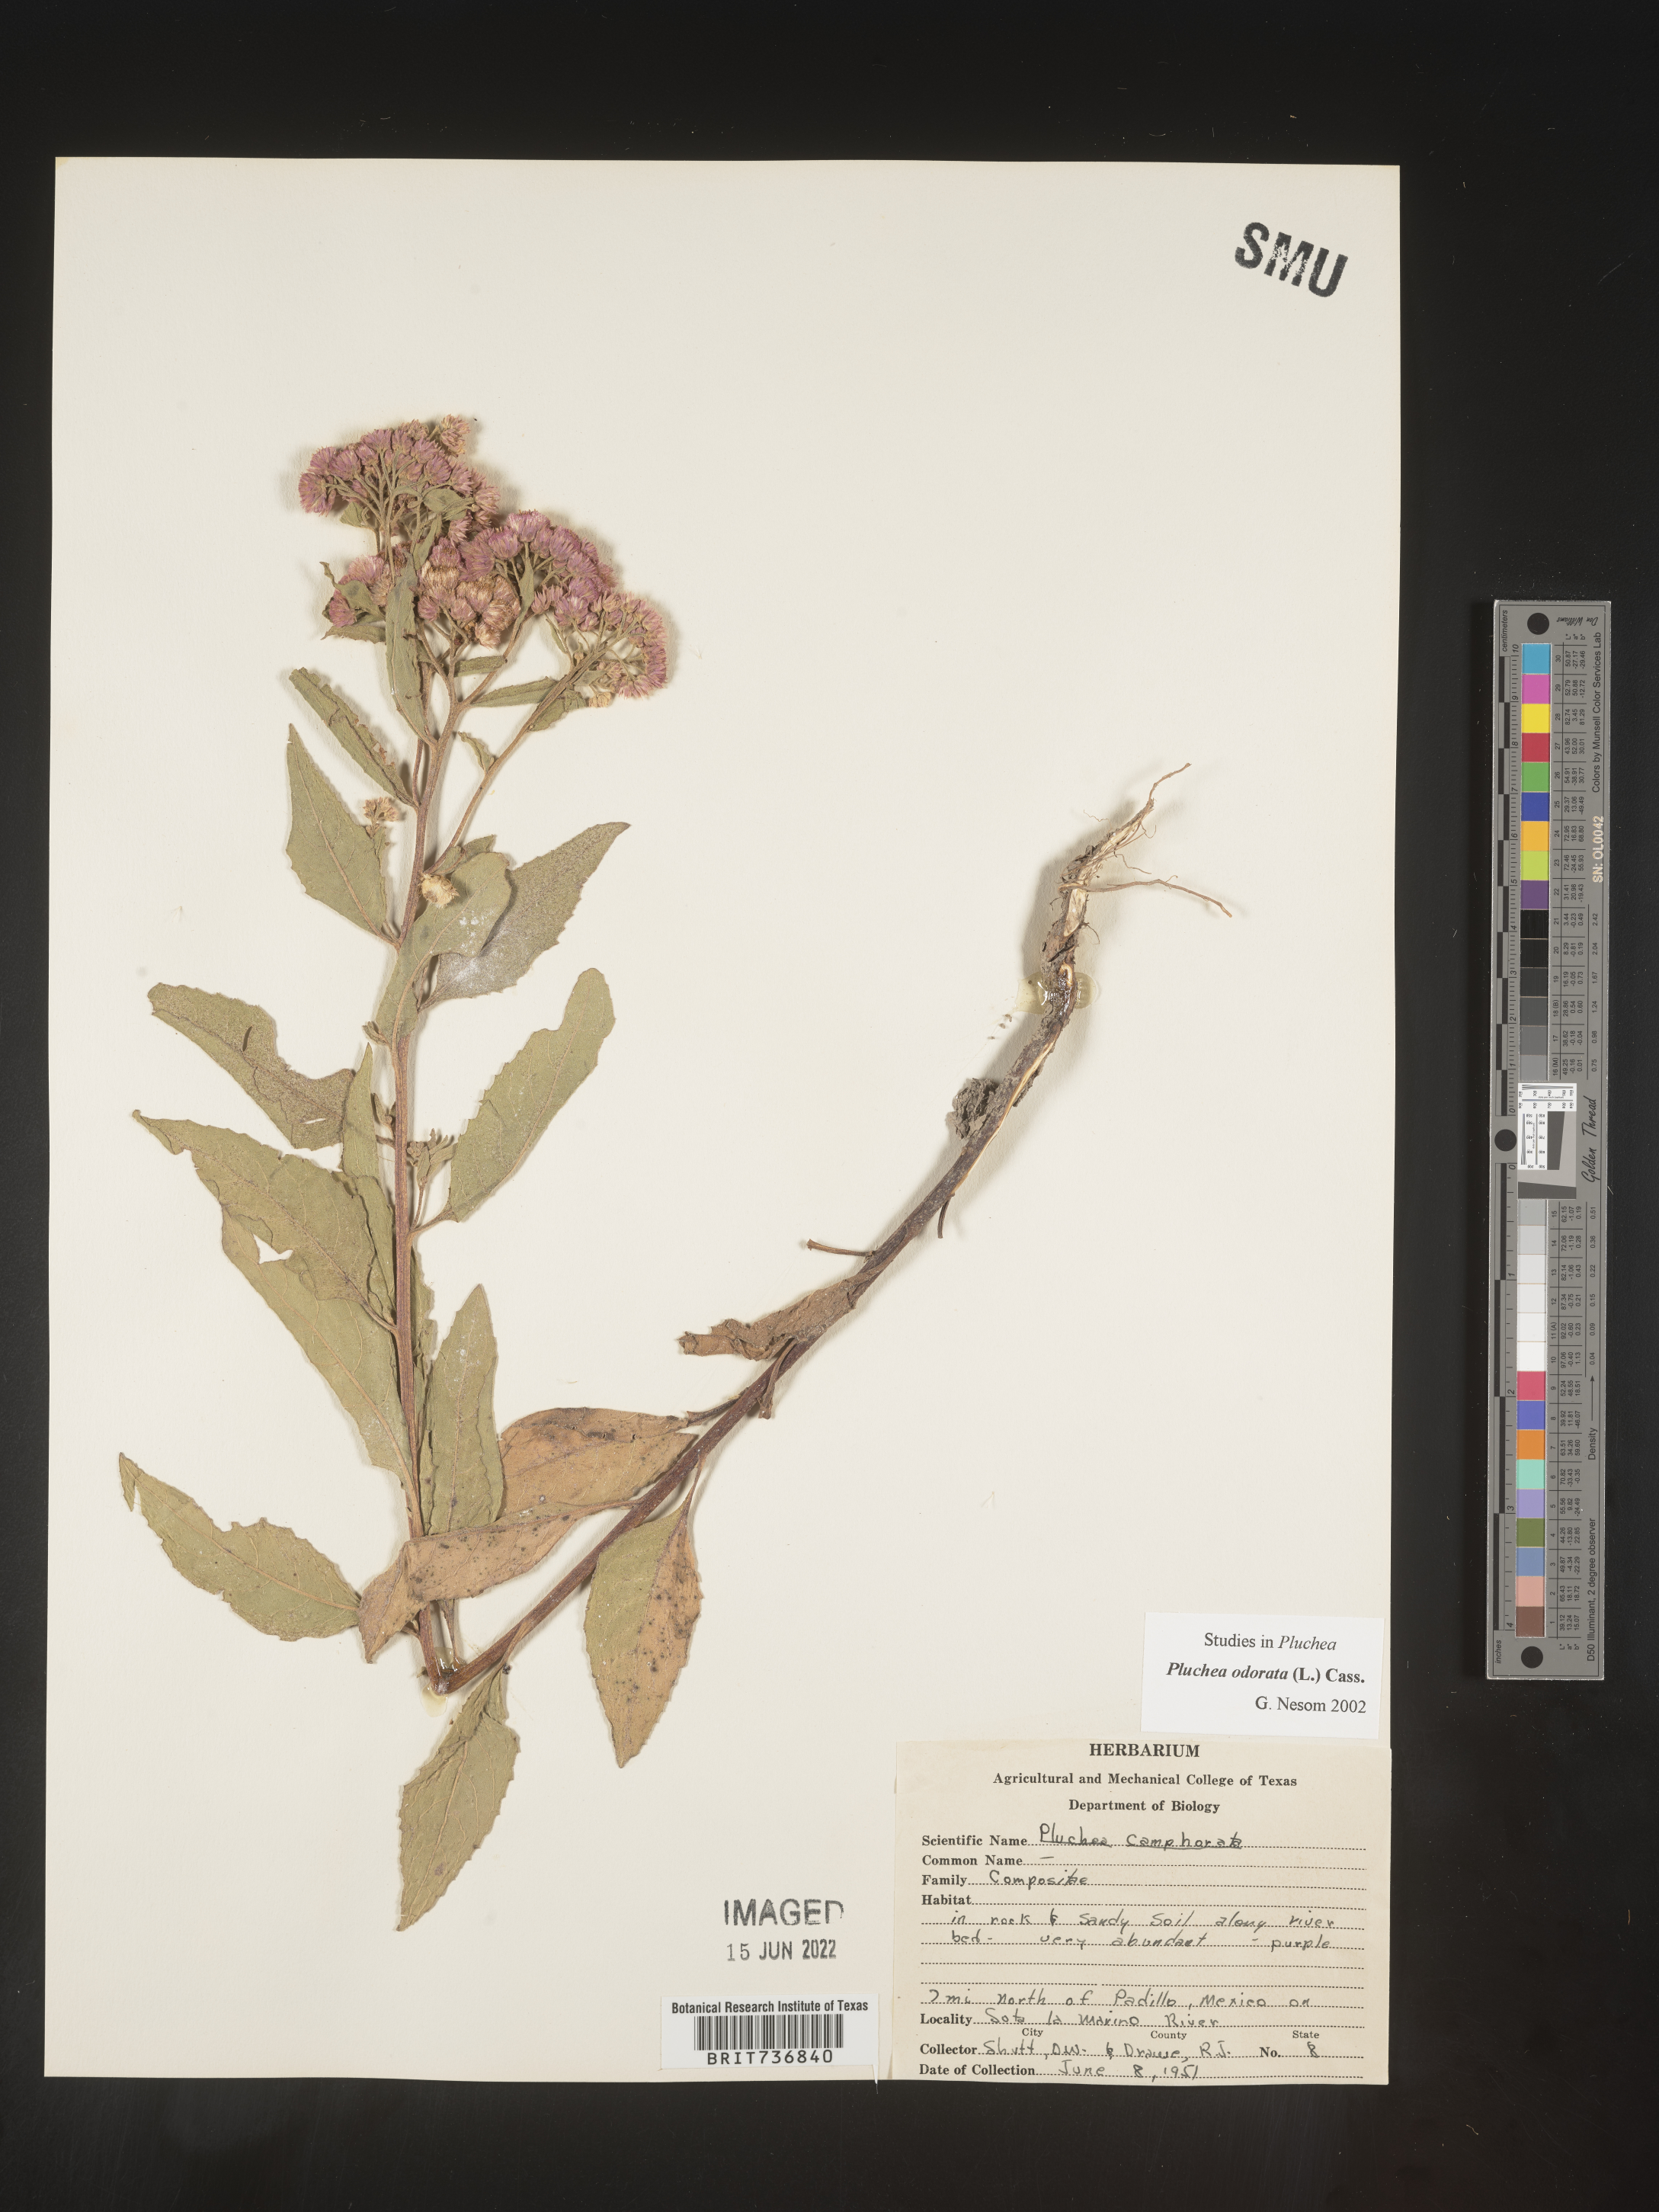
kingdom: Plantae
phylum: Tracheophyta
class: Magnoliopsida
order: Asterales
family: Asteraceae
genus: Pluchea
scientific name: Pluchea
